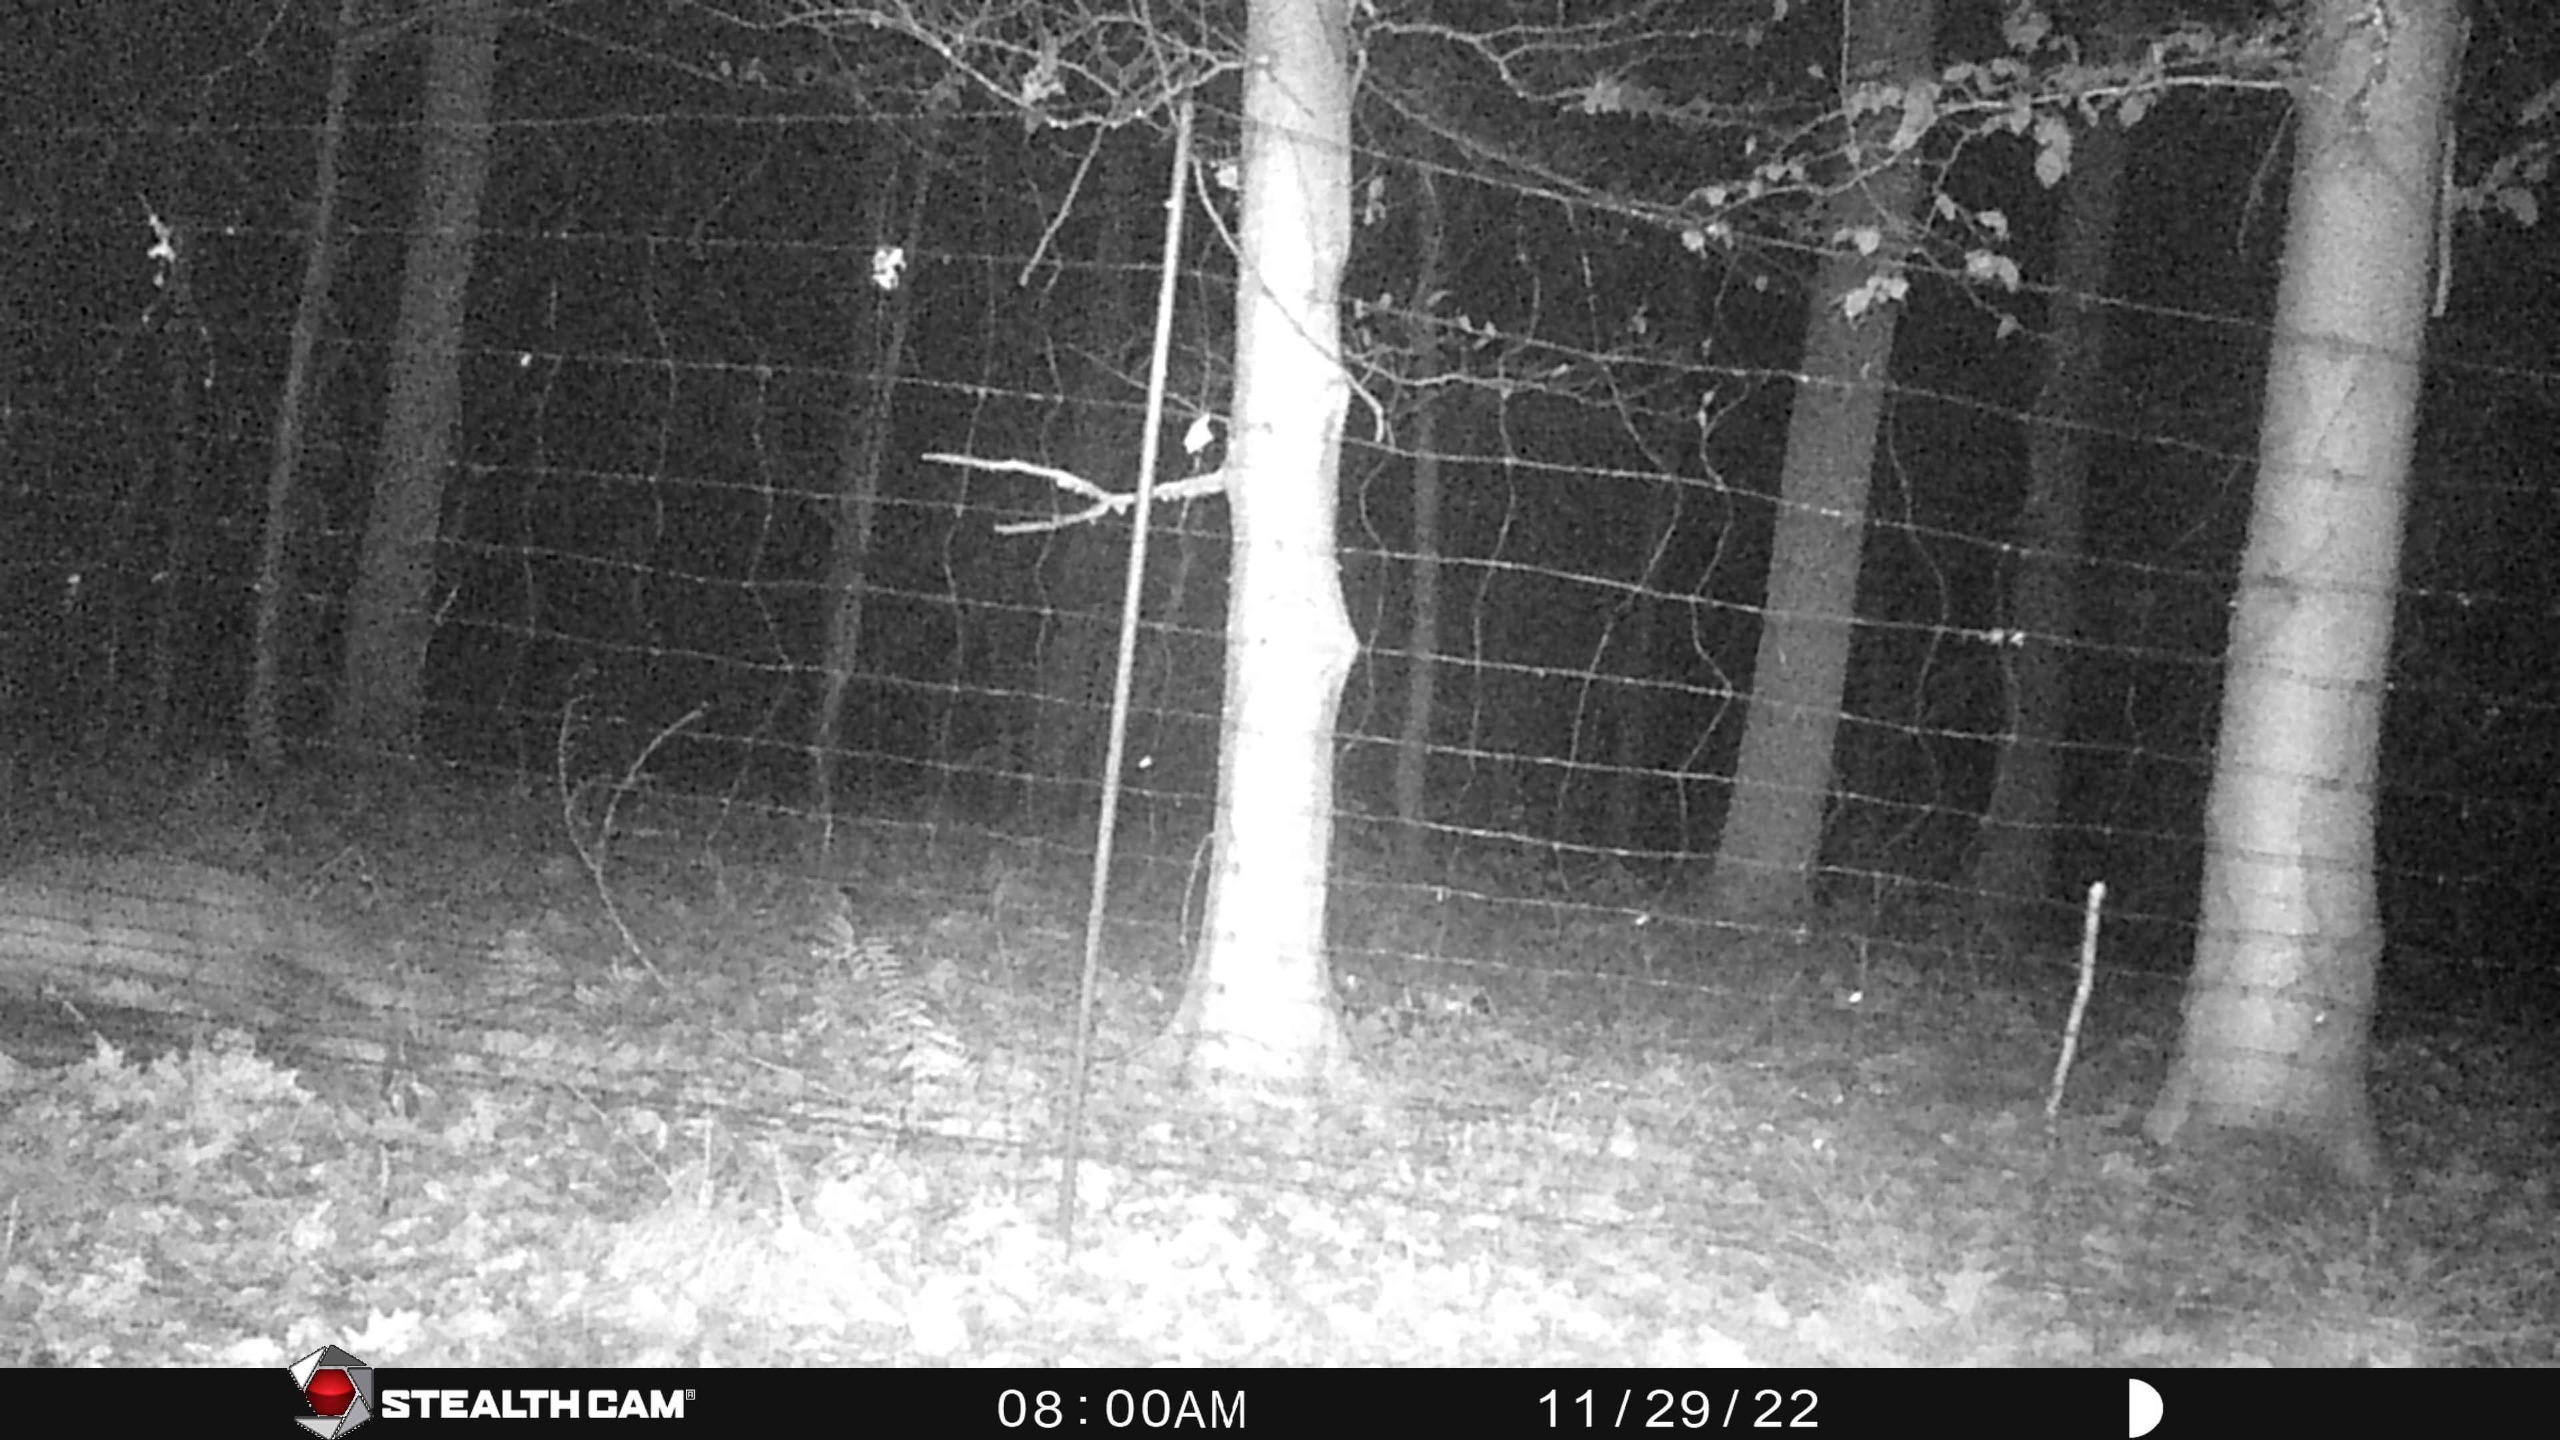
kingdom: Animalia
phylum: Chordata
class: Mammalia
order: Carnivora
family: Canidae
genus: Vulpes
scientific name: Vulpes vulpes
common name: Ræv
